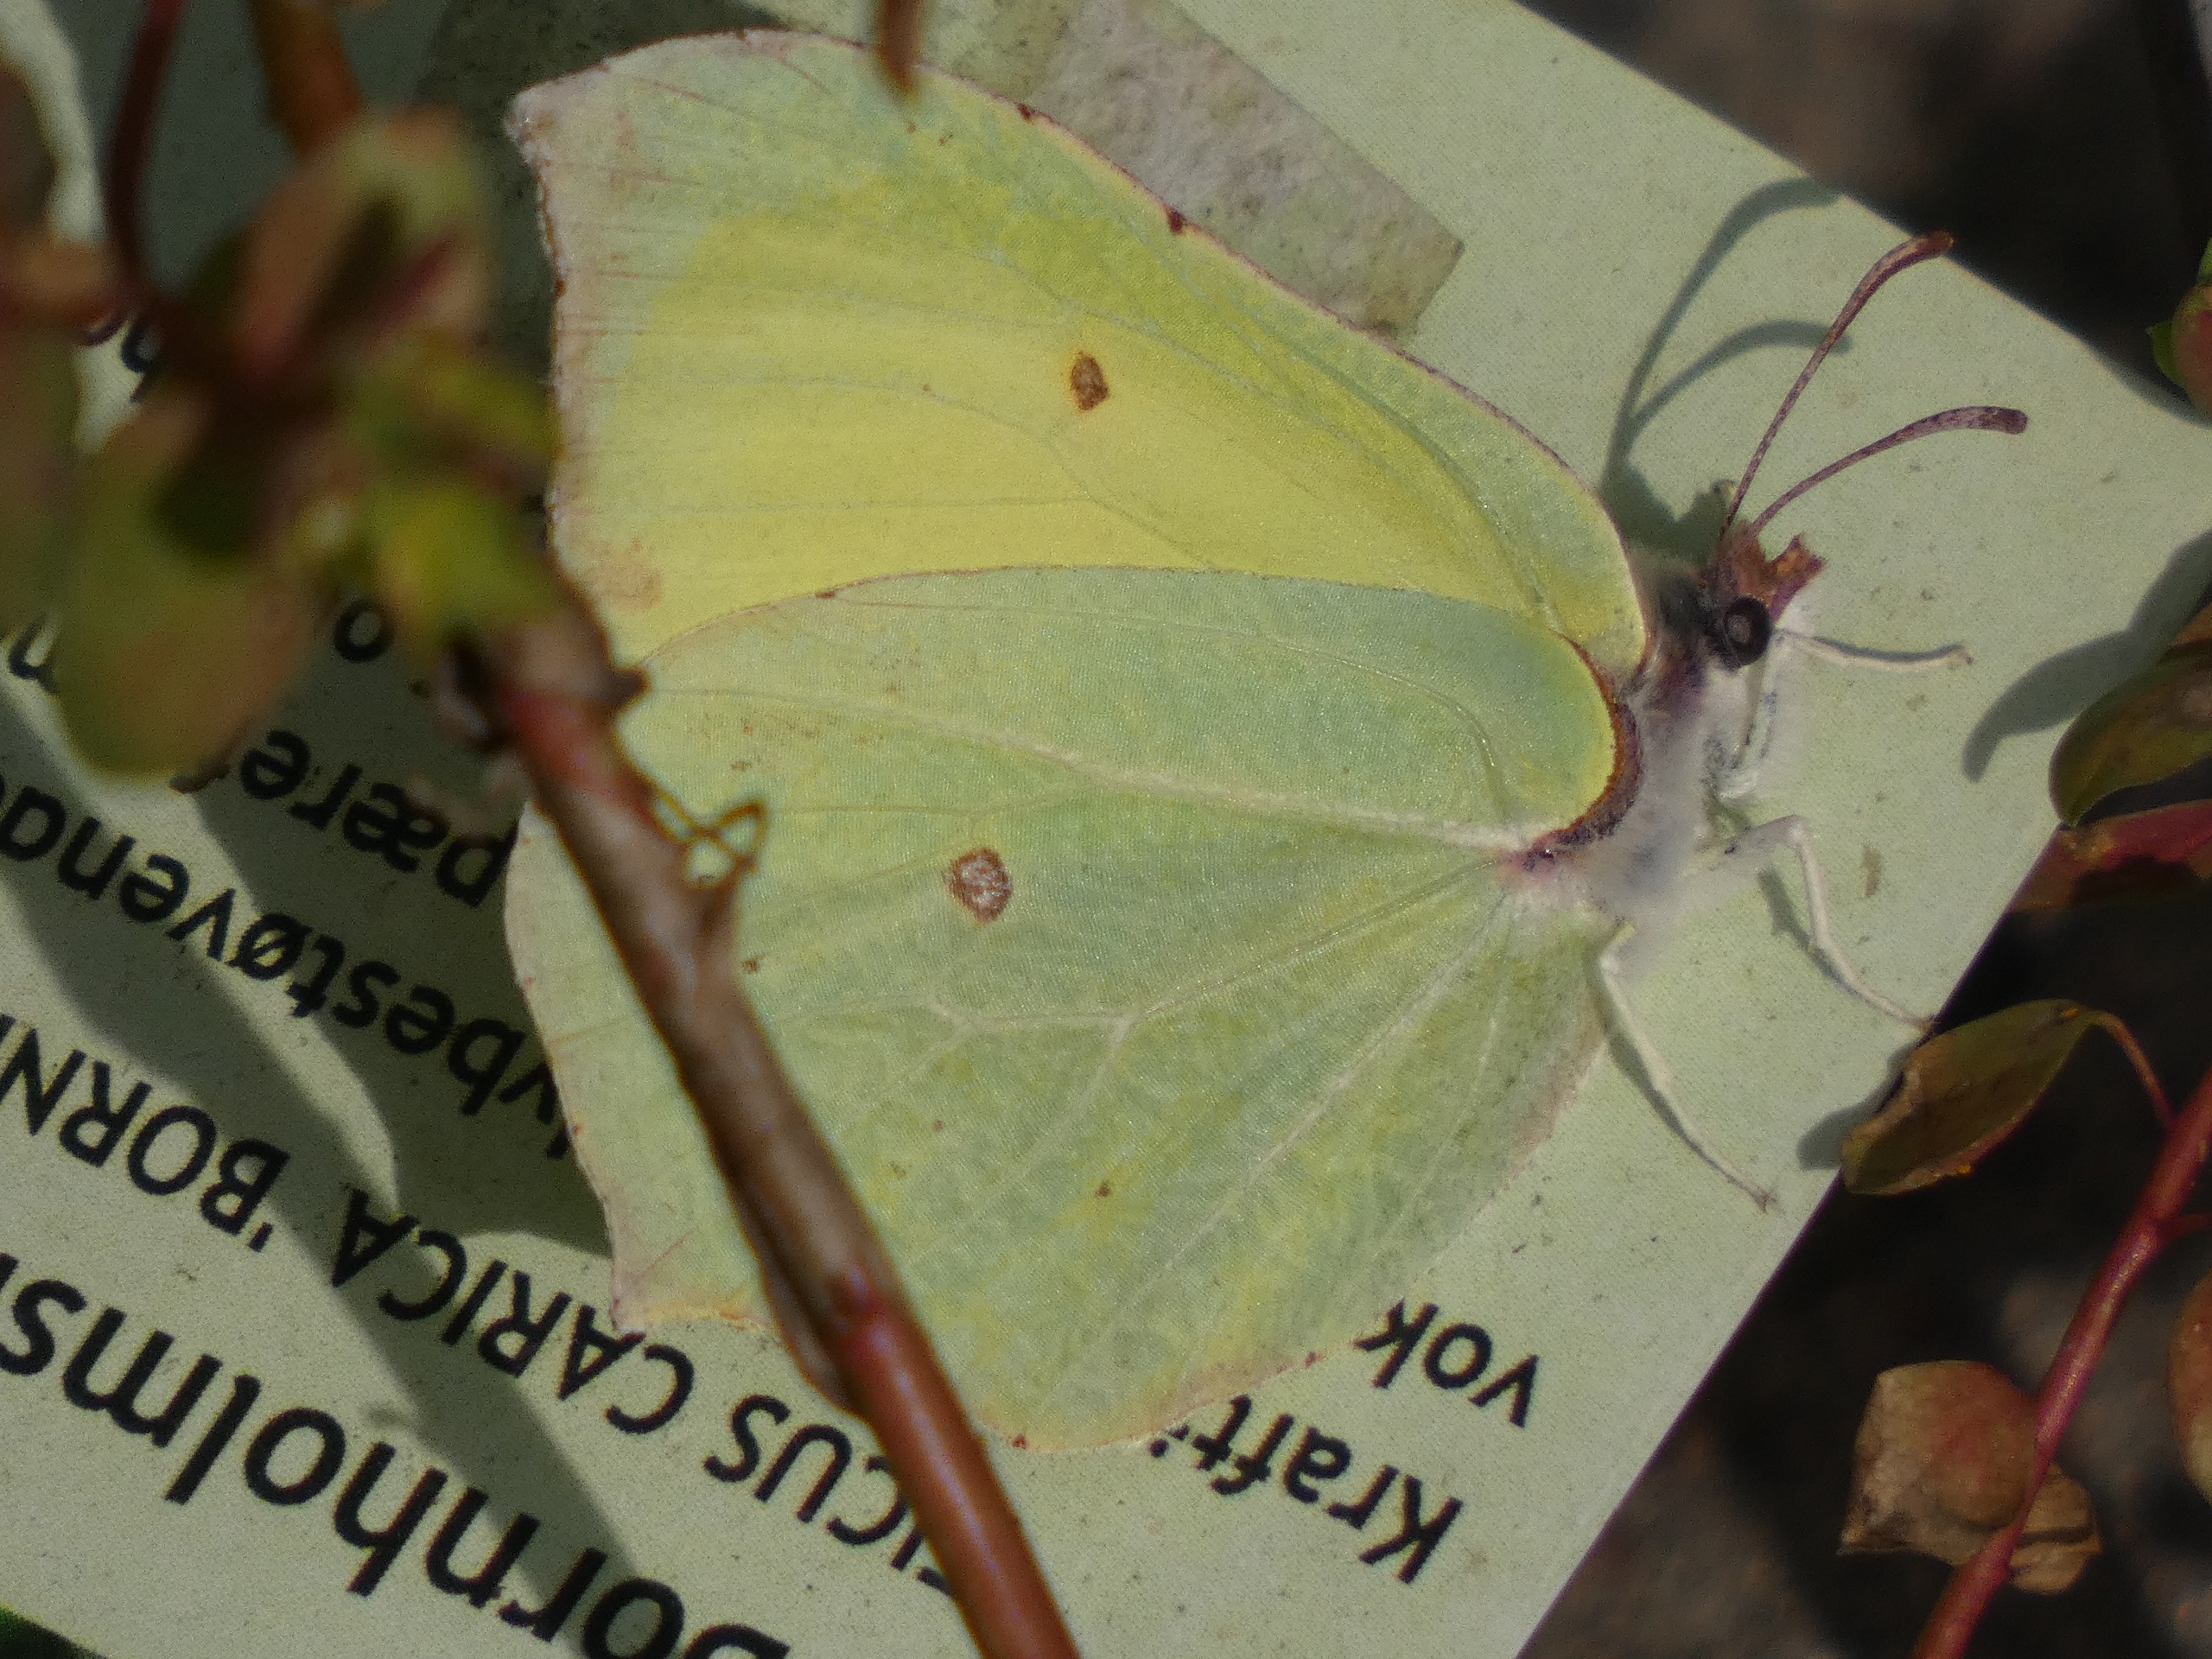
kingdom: Animalia
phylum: Arthropoda
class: Insecta
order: Lepidoptera
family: Pieridae
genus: Gonepteryx
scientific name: Gonepteryx rhamni
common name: Citronsommerfugl
